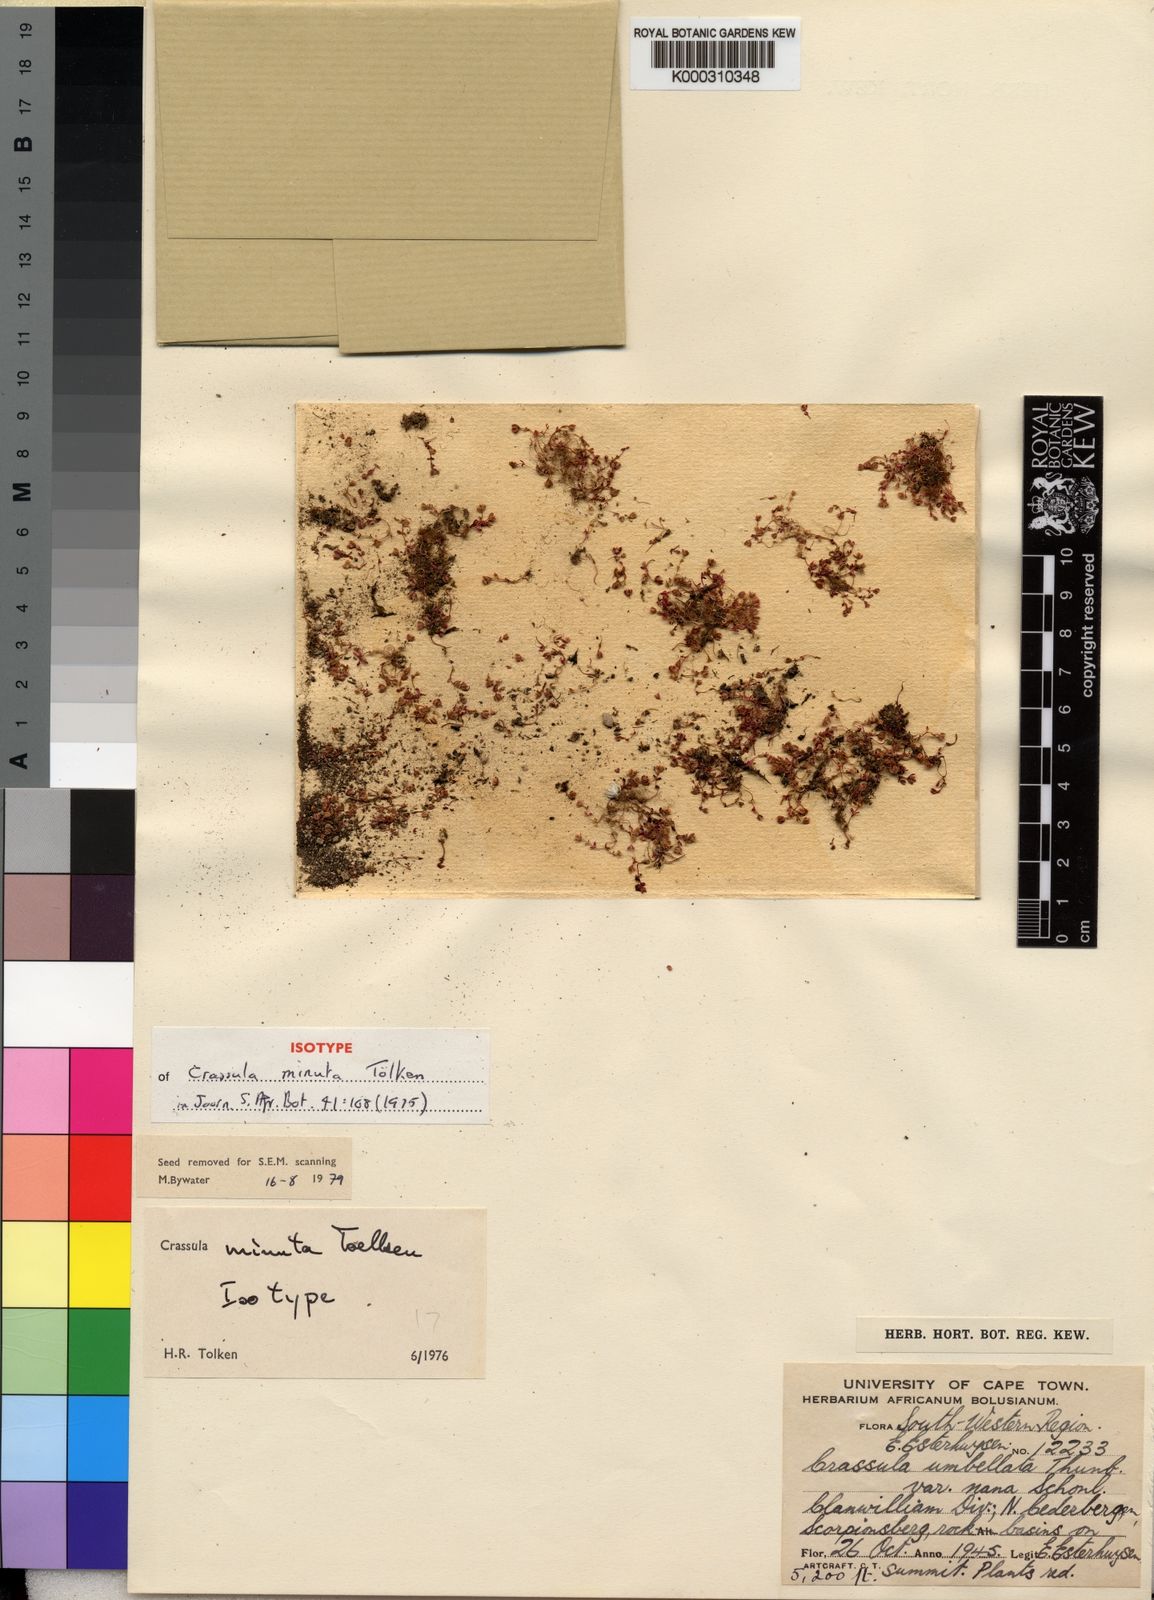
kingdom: Plantae
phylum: Tracheophyta
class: Magnoliopsida
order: Saxifragales
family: Crassulaceae
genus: Crassula
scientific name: Crassula minuta
